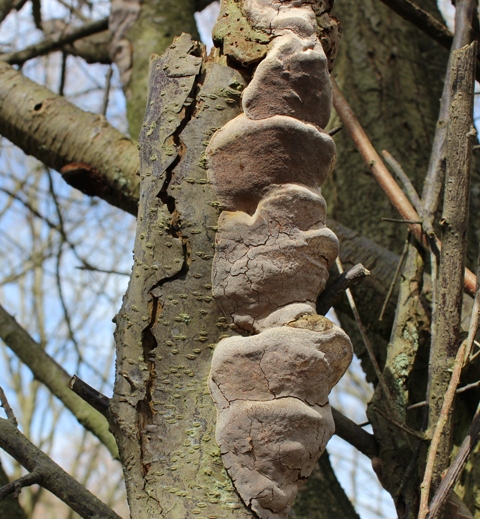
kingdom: Fungi
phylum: Basidiomycota
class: Agaricomycetes
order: Hymenochaetales
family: Hymenochaetaceae
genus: Phellinus
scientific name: Phellinus pomaceus
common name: blomme-ildporesvamp
